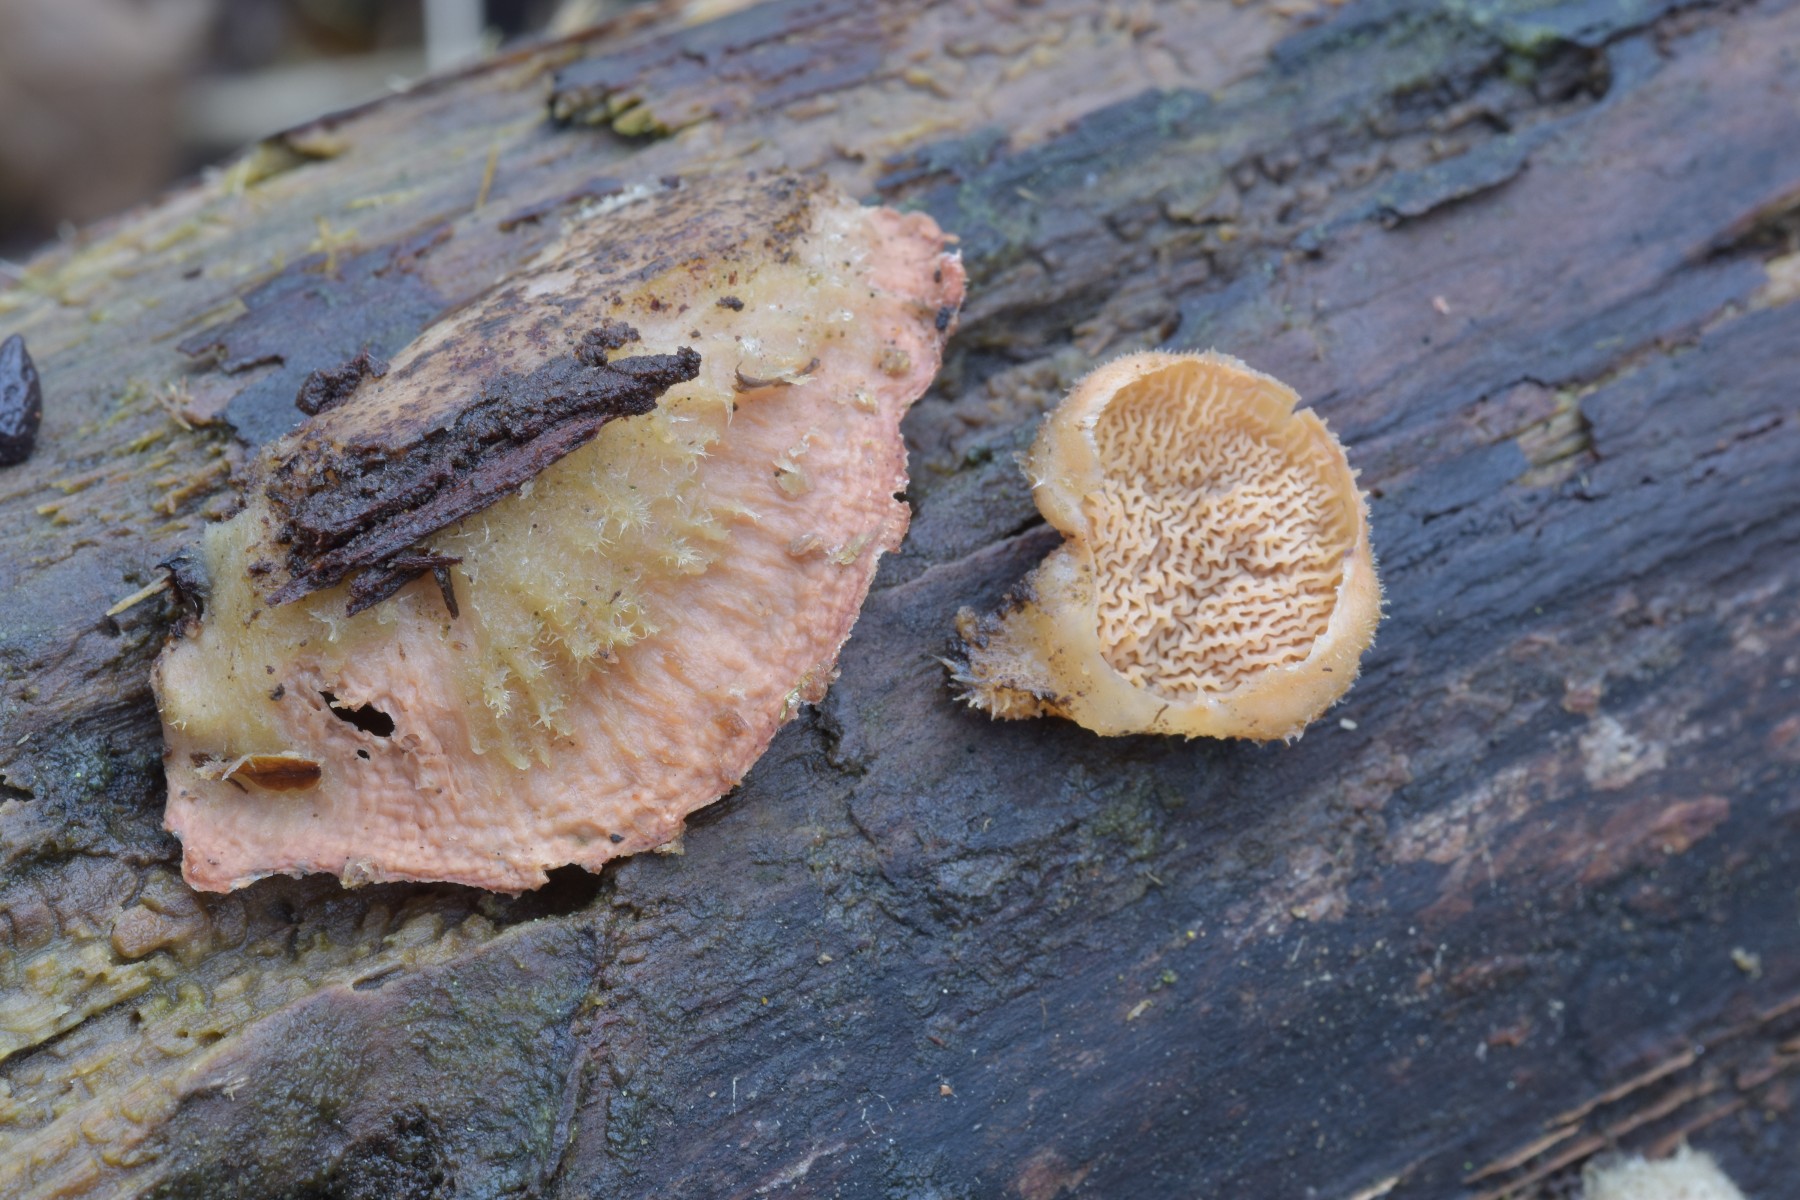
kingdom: Fungi
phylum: Basidiomycota
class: Agaricomycetes
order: Polyporales
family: Meruliaceae
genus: Phlebia
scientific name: Phlebia tremellosa
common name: bævrende åresvamp
